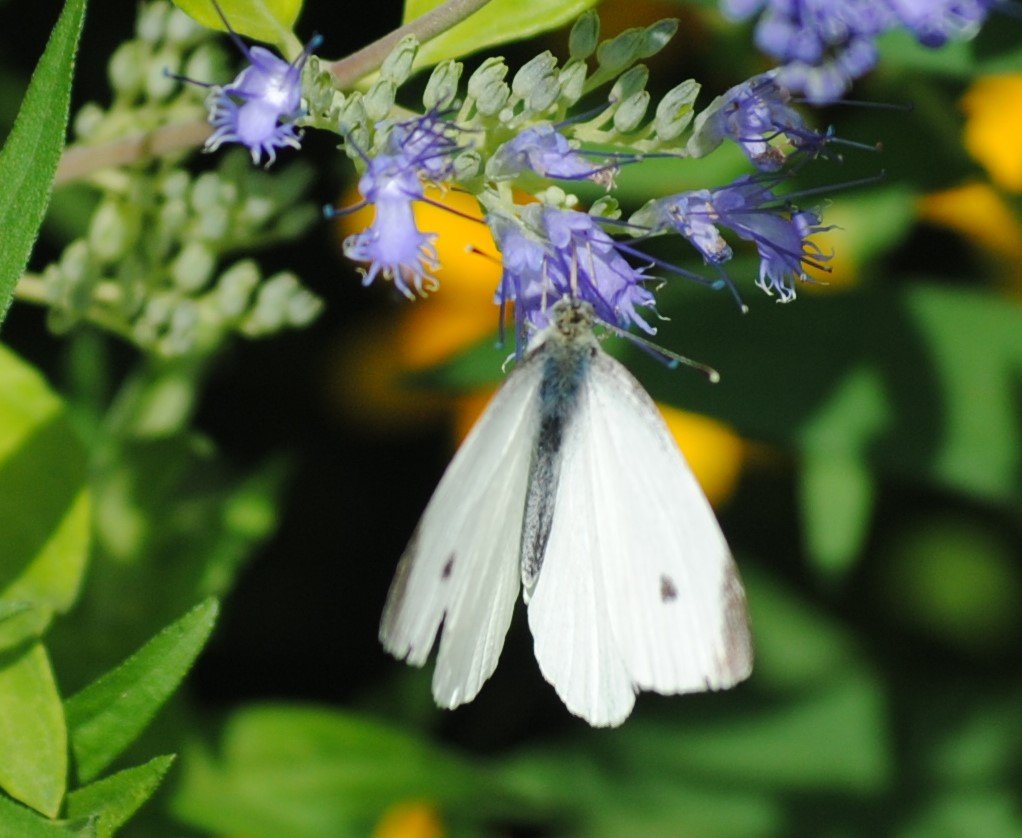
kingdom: Animalia
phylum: Arthropoda
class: Insecta
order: Lepidoptera
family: Pieridae
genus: Pieris
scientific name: Pieris rapae
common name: Cabbage White
